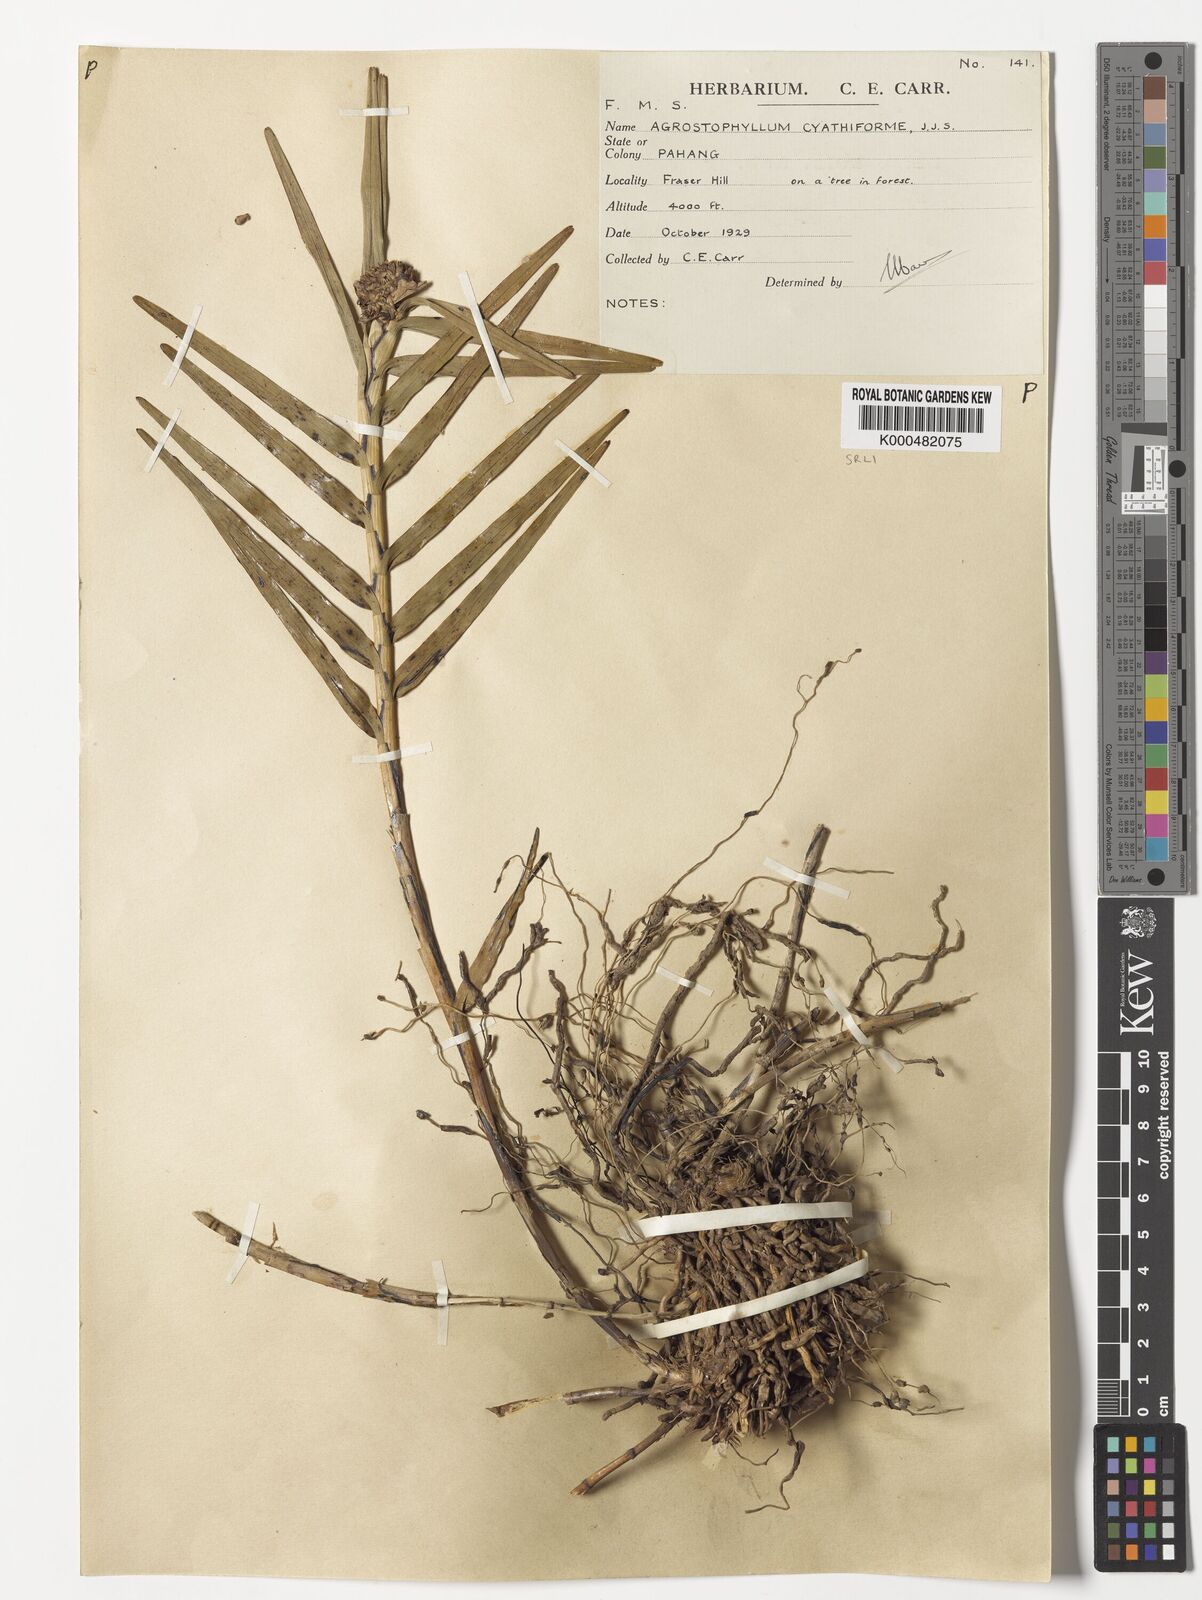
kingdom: Plantae
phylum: Tracheophyta
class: Liliopsida
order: Asparagales
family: Orchidaceae
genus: Agrostophyllum
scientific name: Agrostophyllum cyathiforme
